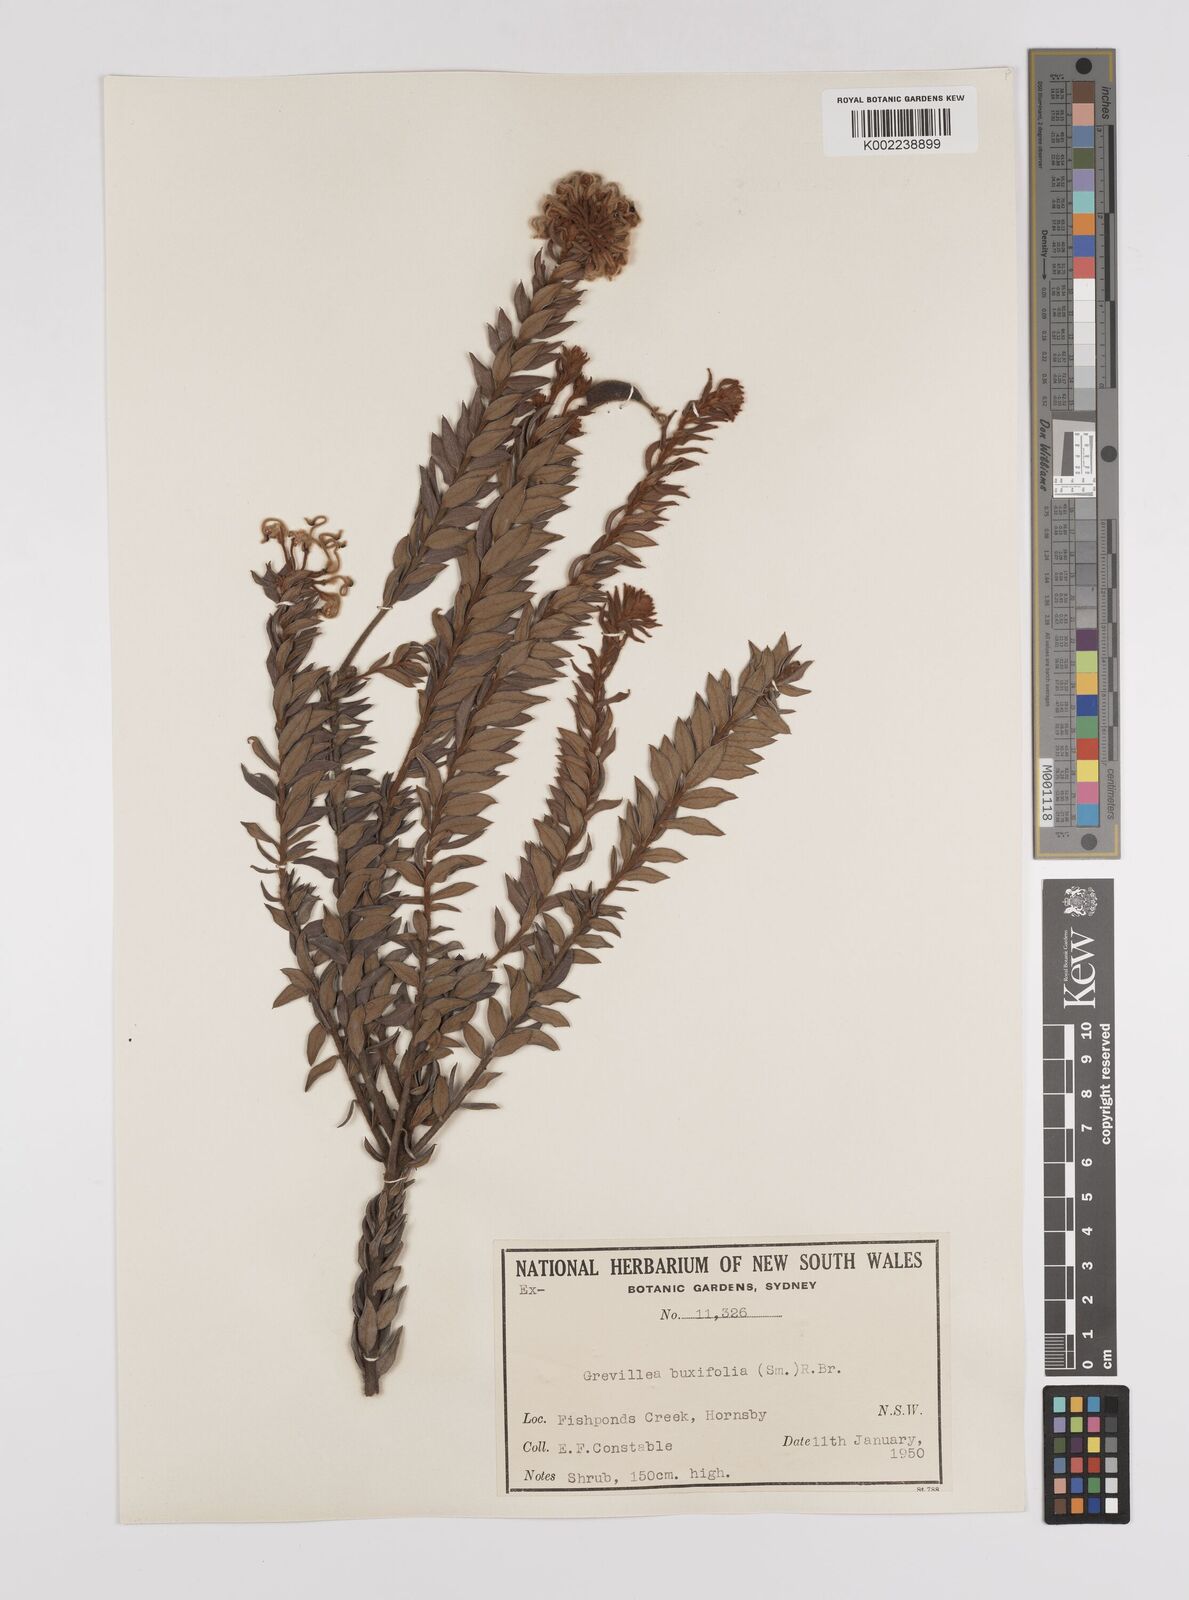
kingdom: Plantae
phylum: Tracheophyta
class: Magnoliopsida
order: Proteales
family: Proteaceae
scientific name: Proteaceae
